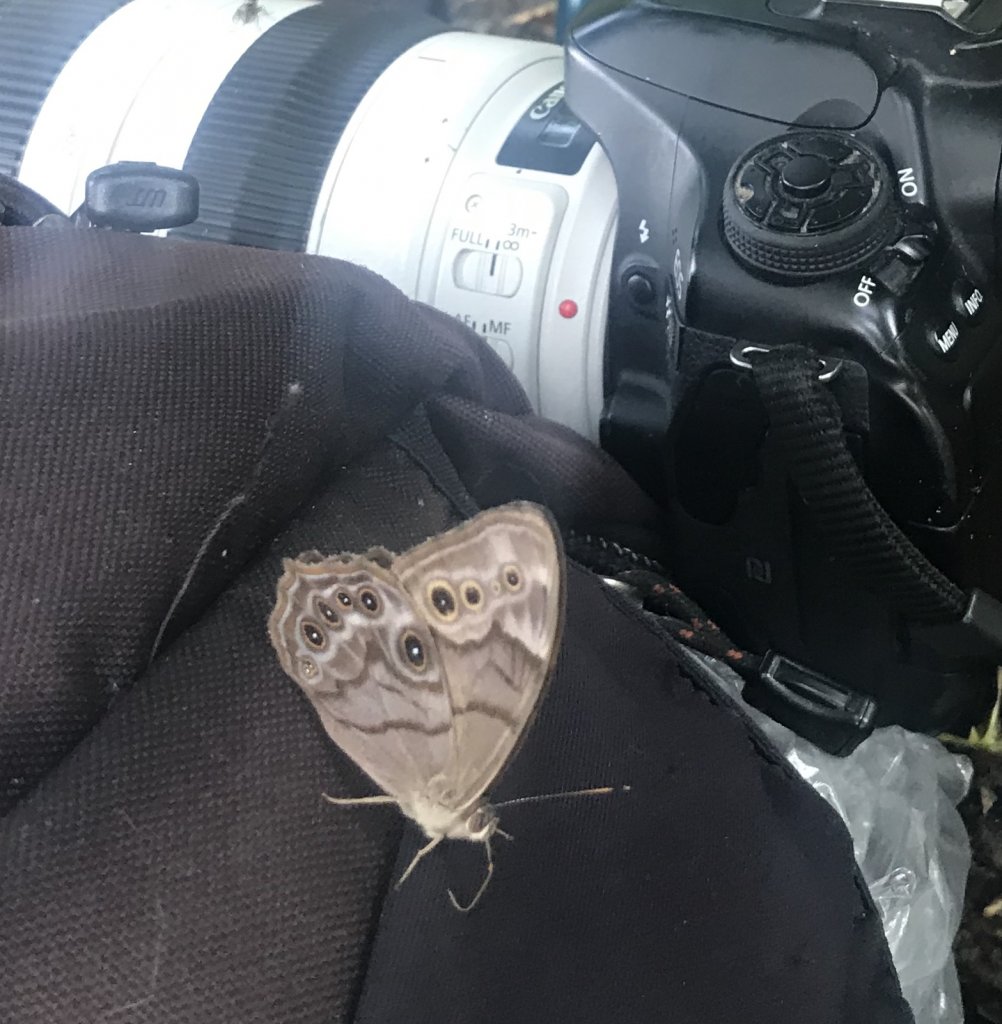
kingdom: Animalia
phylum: Arthropoda
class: Insecta
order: Lepidoptera
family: Nymphalidae
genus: Lethe
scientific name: Lethe anthedon
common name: Northern Pearly-Eye
